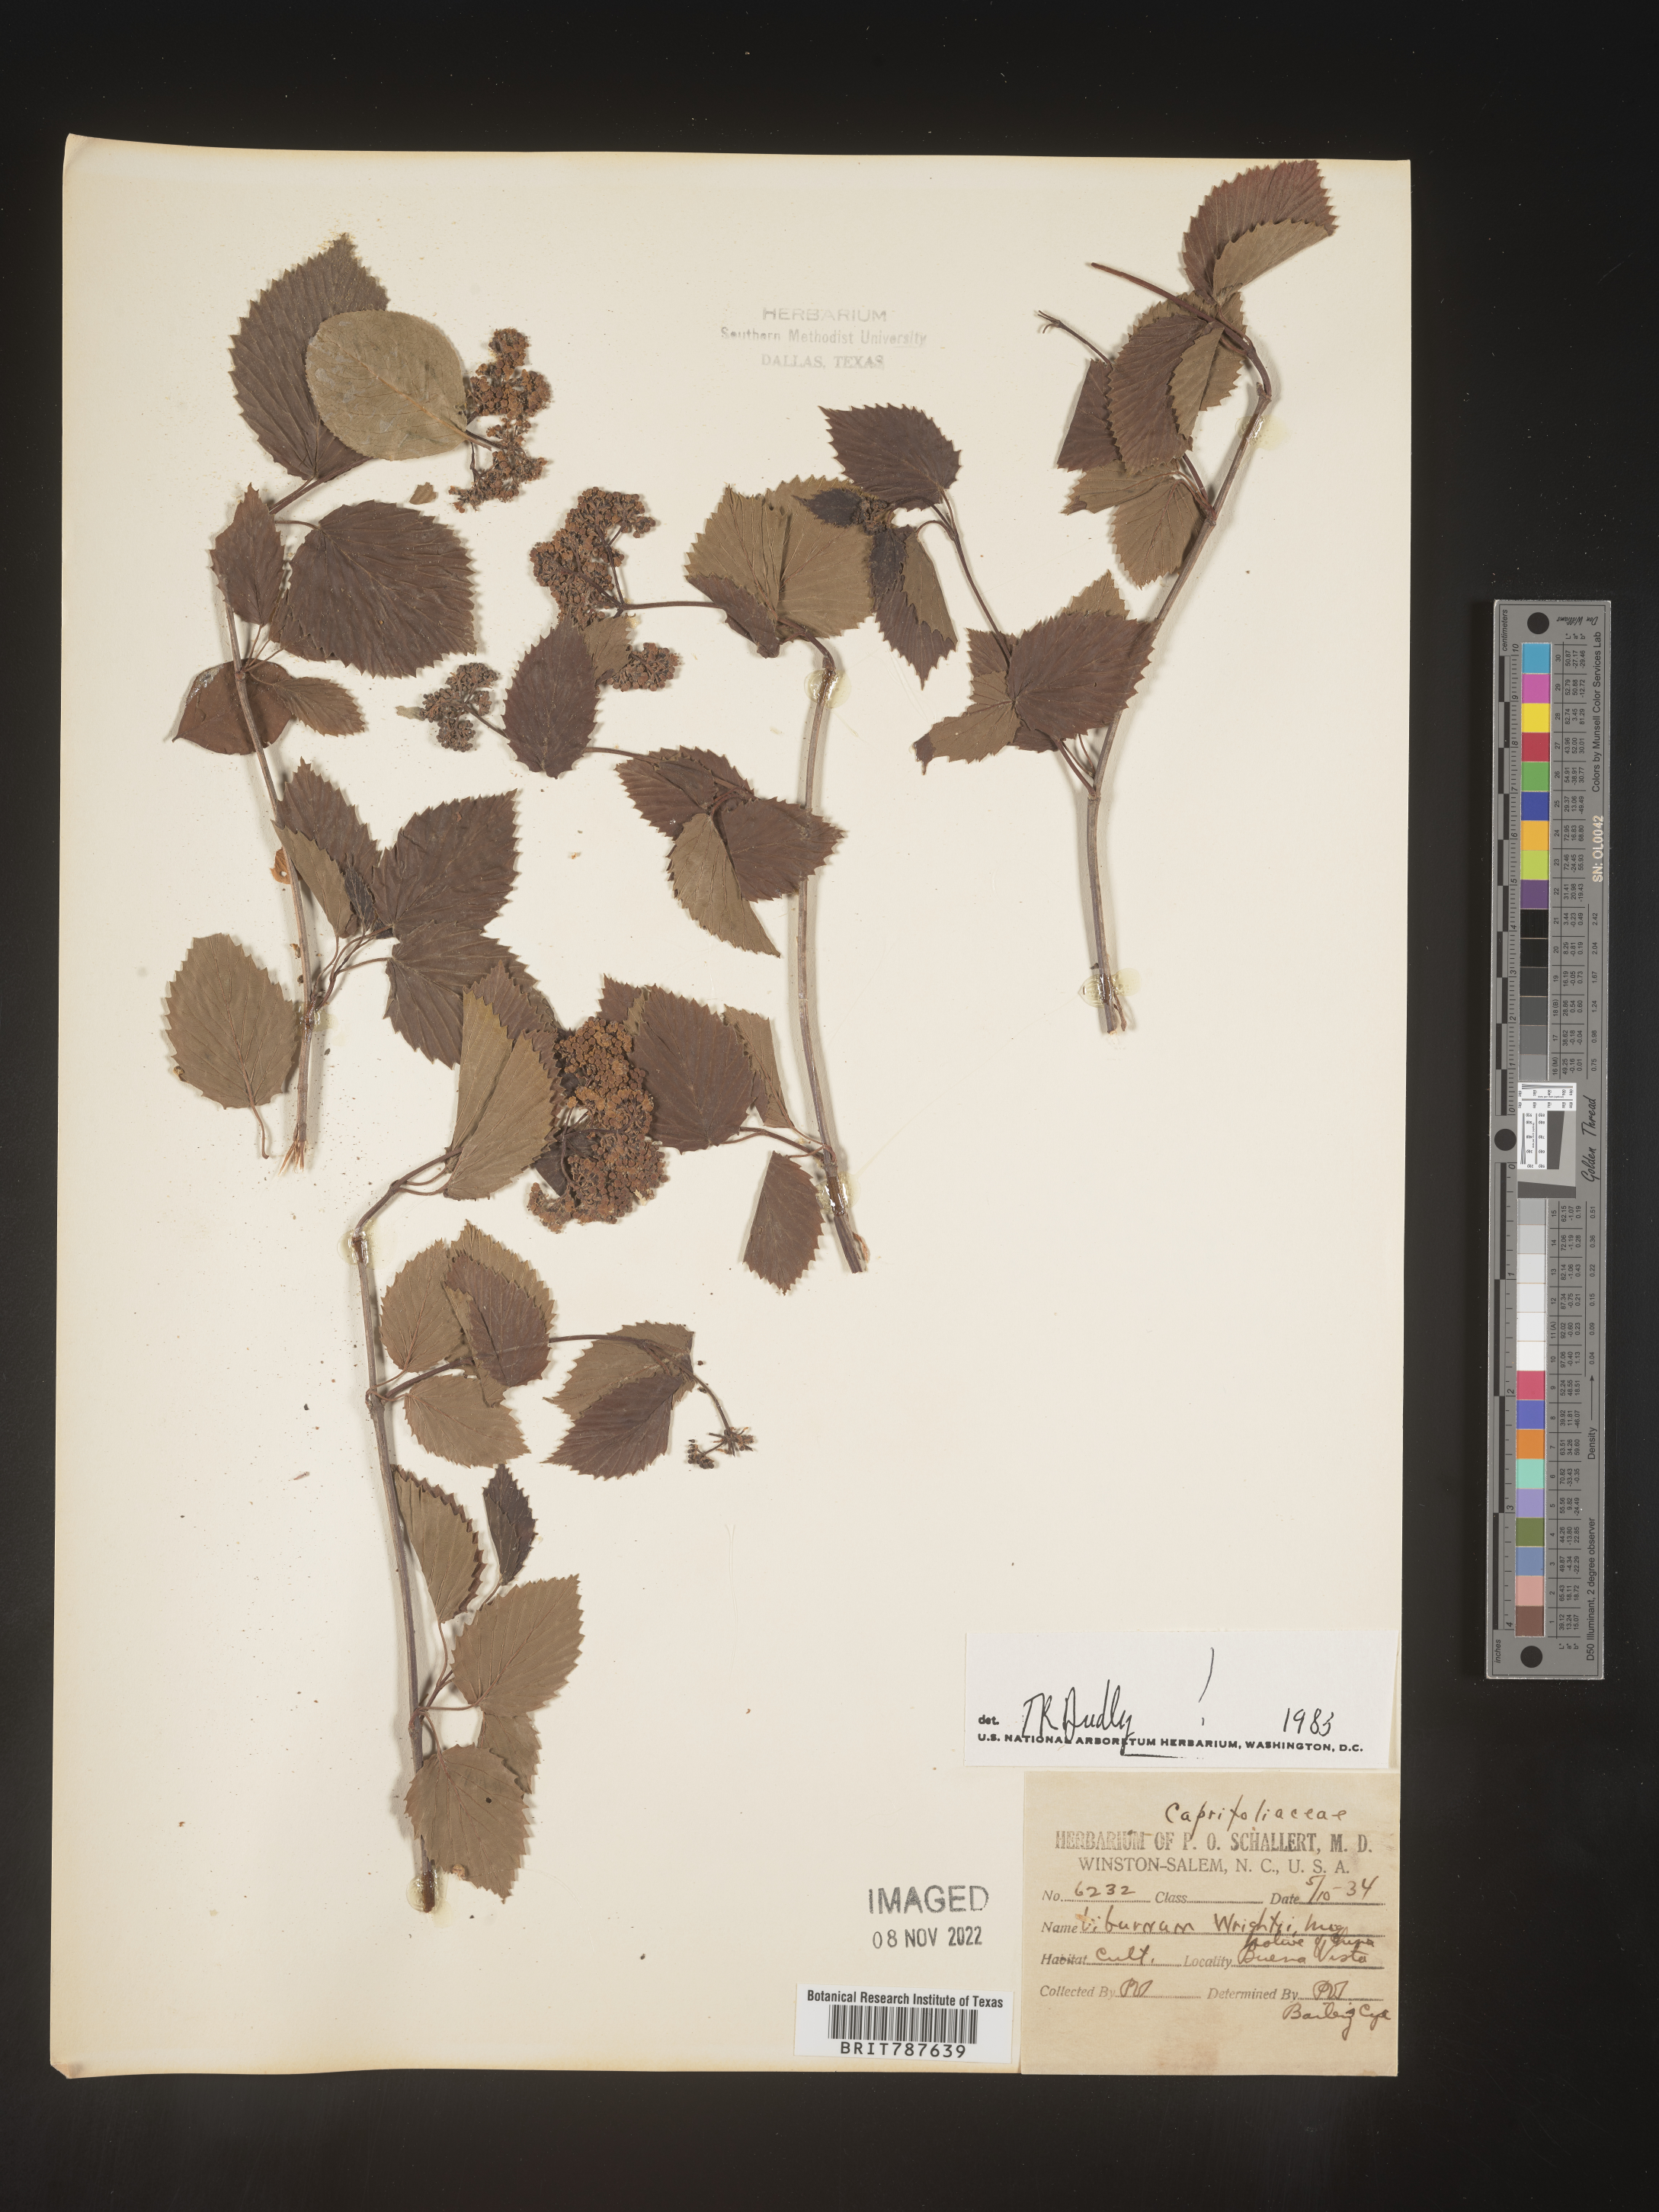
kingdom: Plantae
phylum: Tracheophyta
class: Magnoliopsida
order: Dipsacales
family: Viburnaceae
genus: Viburnum
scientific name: Viburnum
